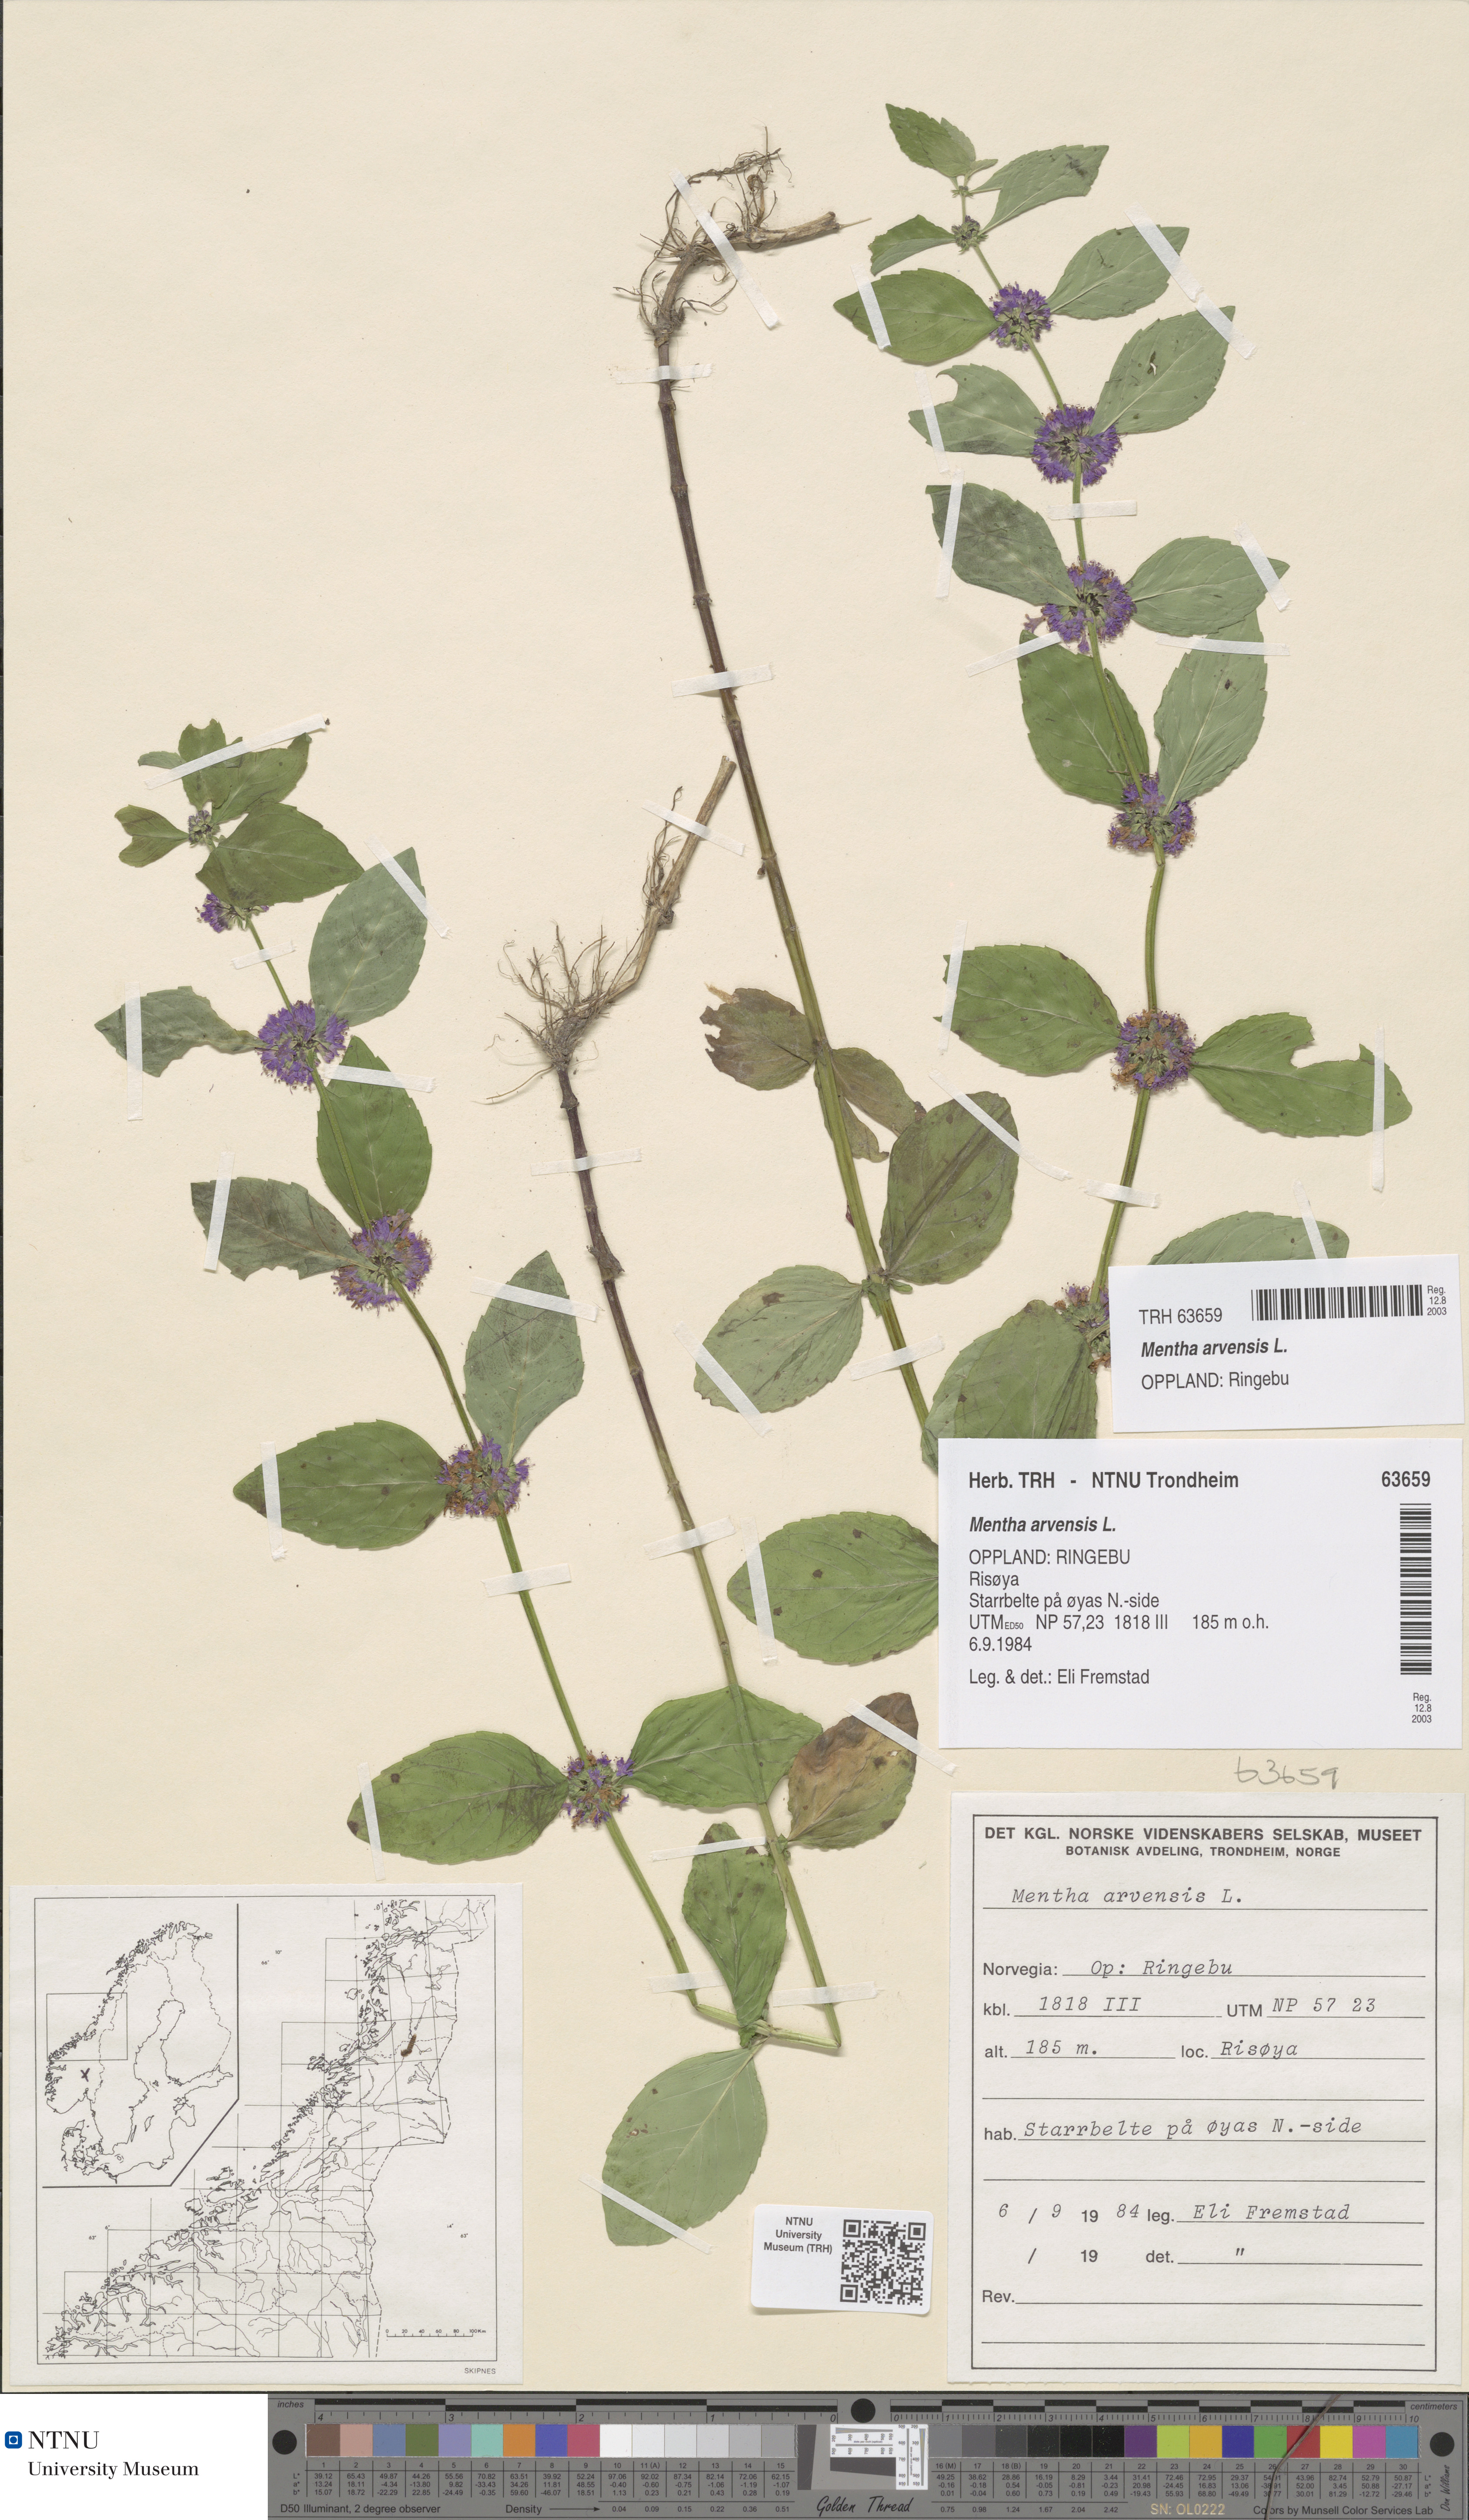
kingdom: Plantae
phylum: Tracheophyta
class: Magnoliopsida
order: Lamiales
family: Lamiaceae
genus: Mentha
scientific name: Mentha arvensis
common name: Corn mint
